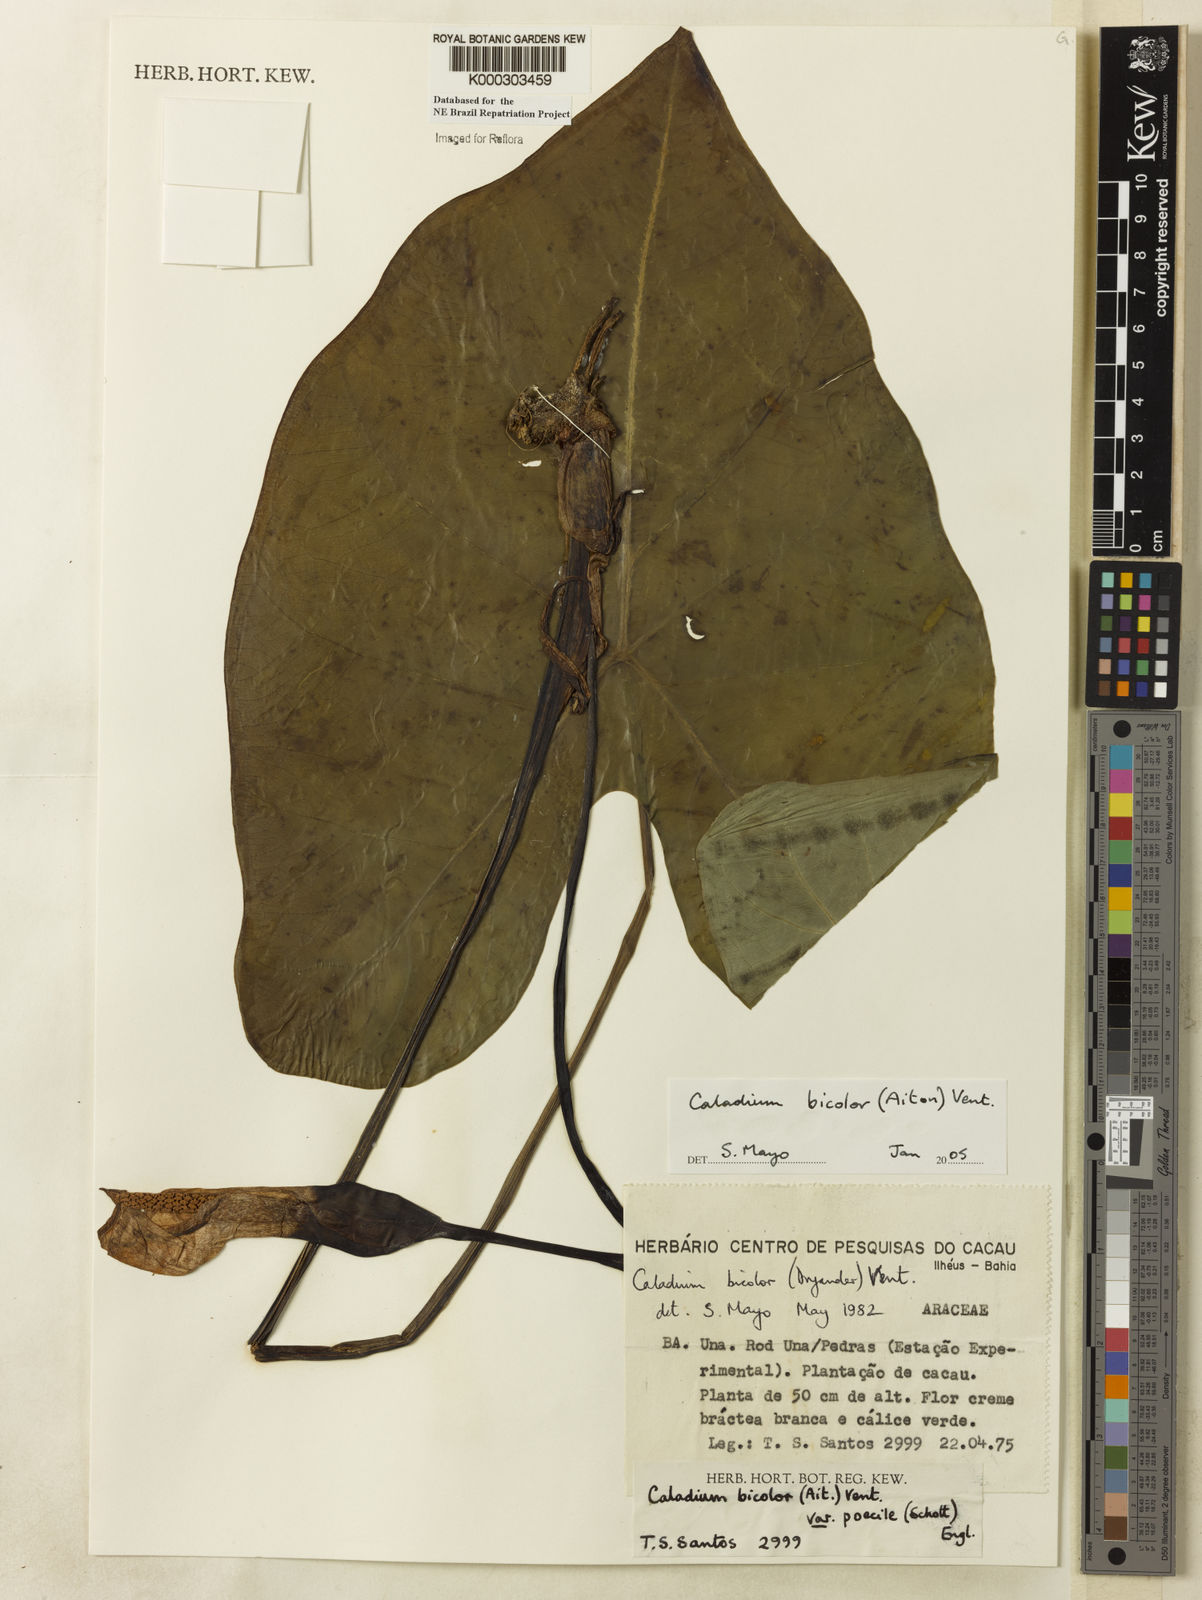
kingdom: Plantae
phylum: Tracheophyta
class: Liliopsida
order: Alismatales
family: Araceae
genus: Caladium
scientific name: Caladium bicolor
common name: Artist's pallet
